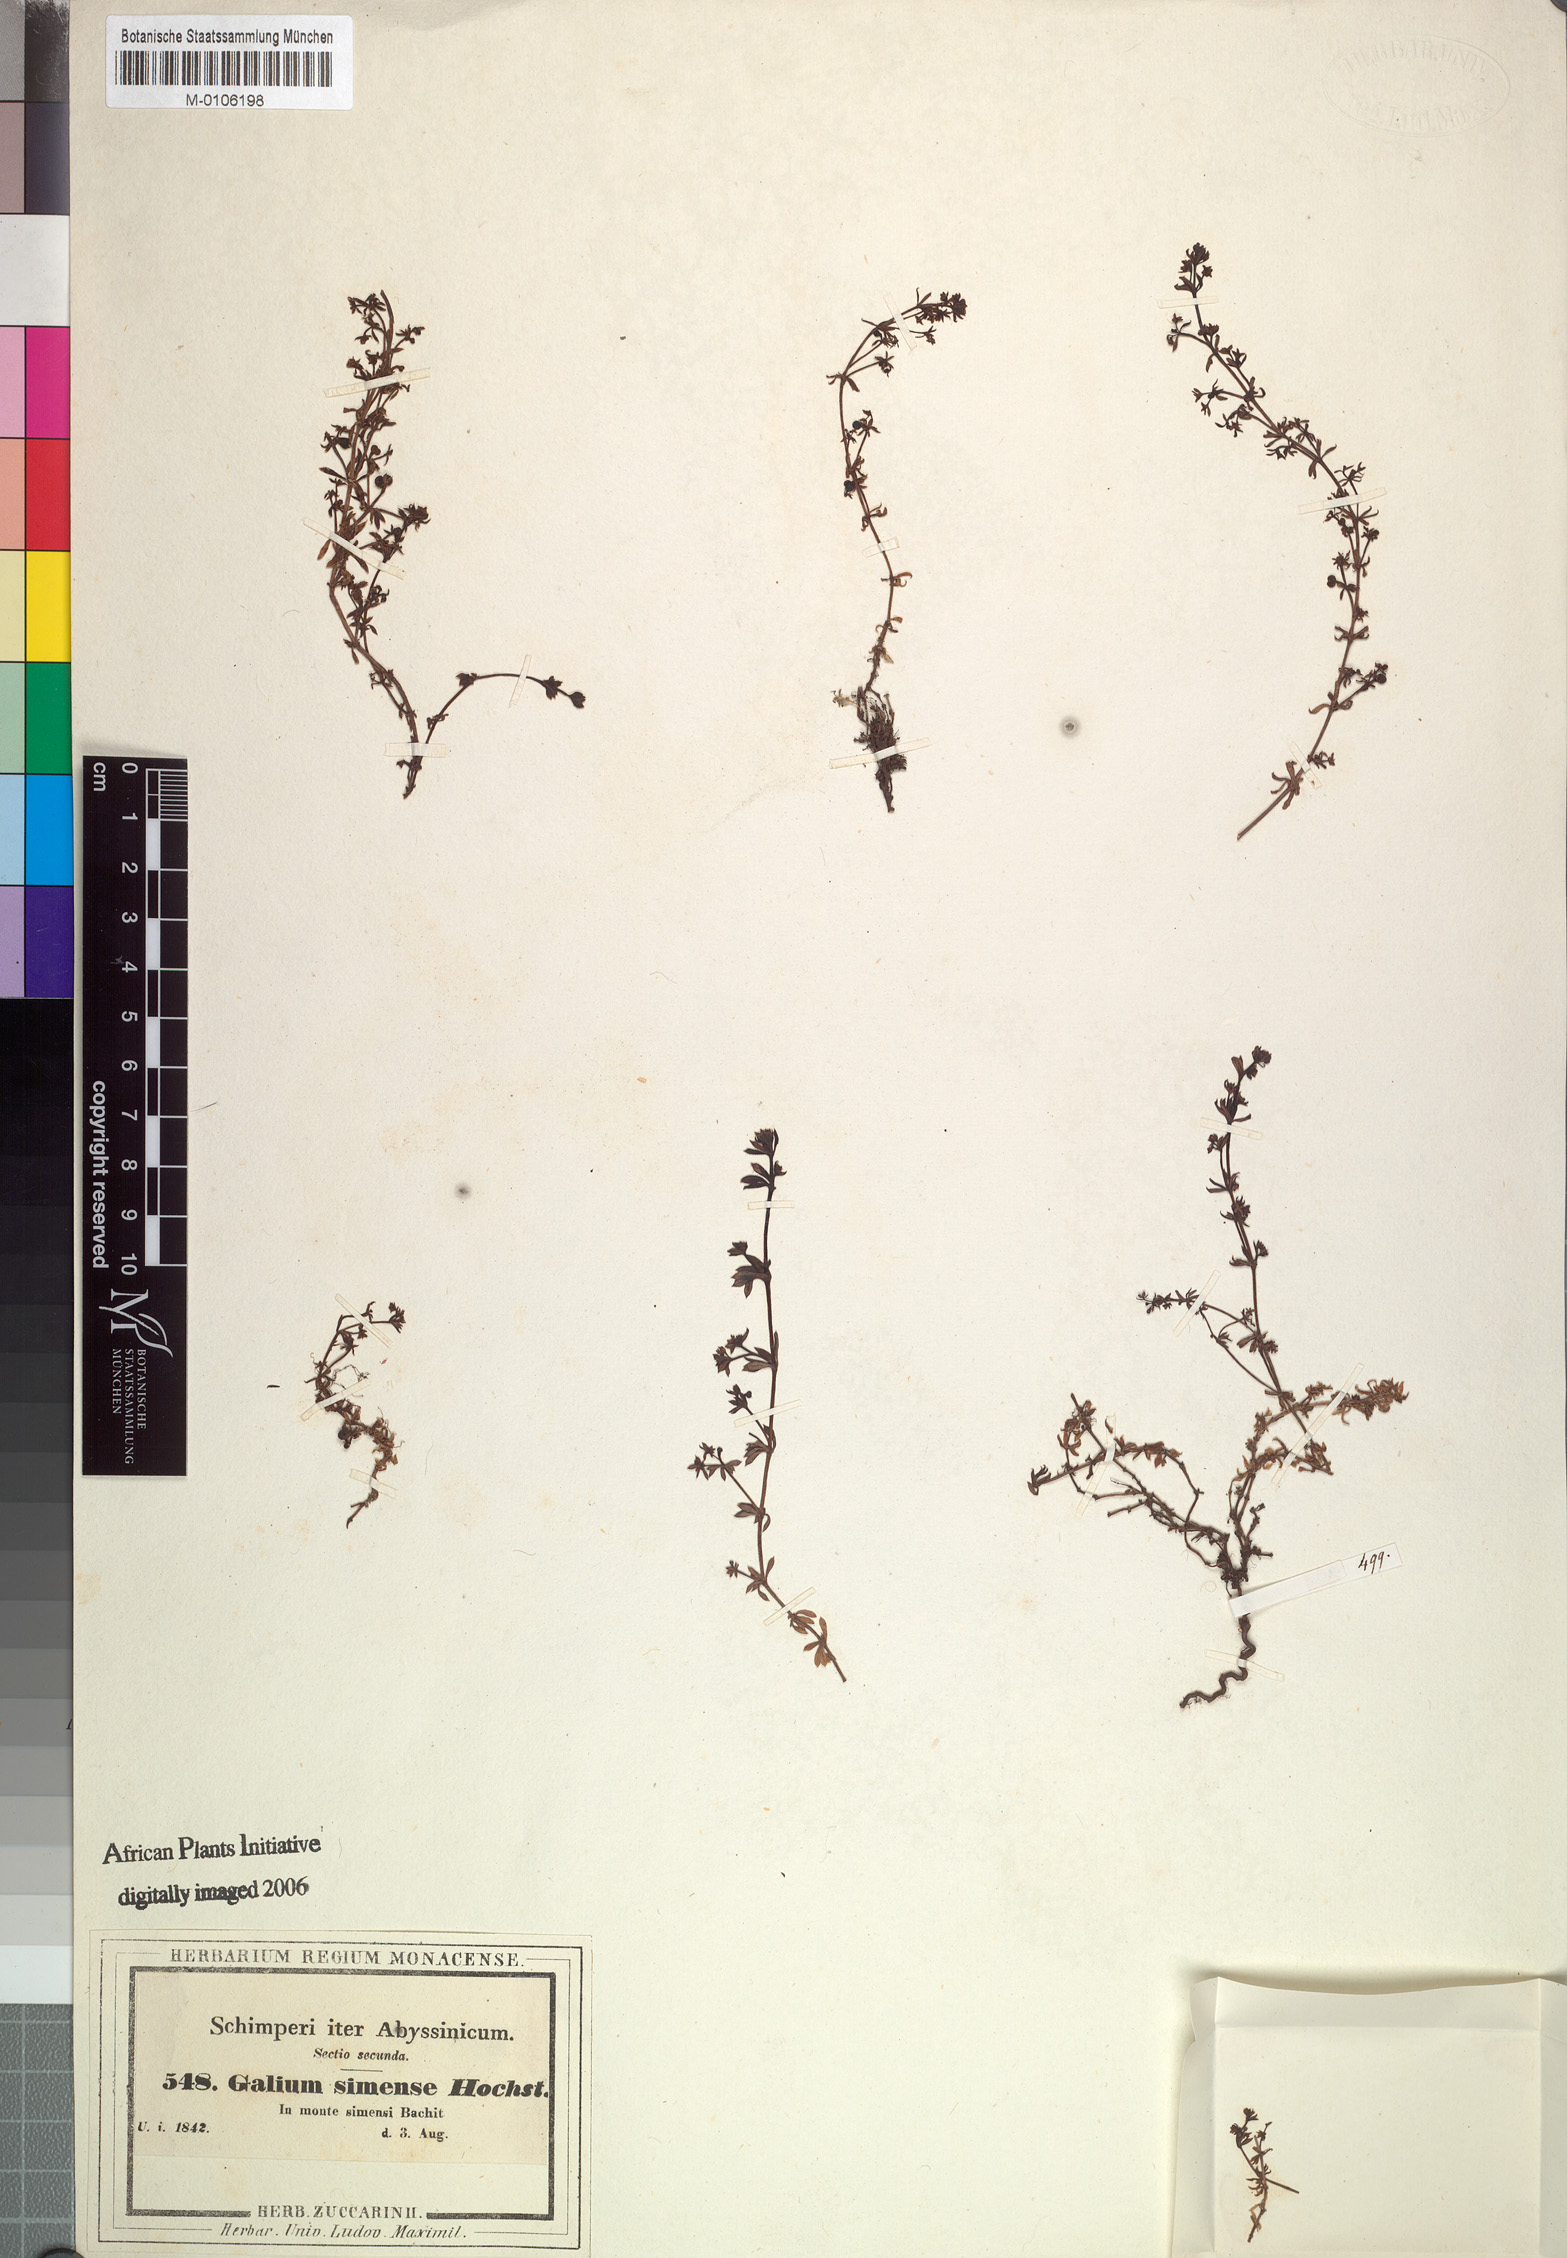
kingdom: Plantae
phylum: Tracheophyta
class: Magnoliopsida
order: Gentianales
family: Rubiaceae
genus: Galium
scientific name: Galium acrophyum
